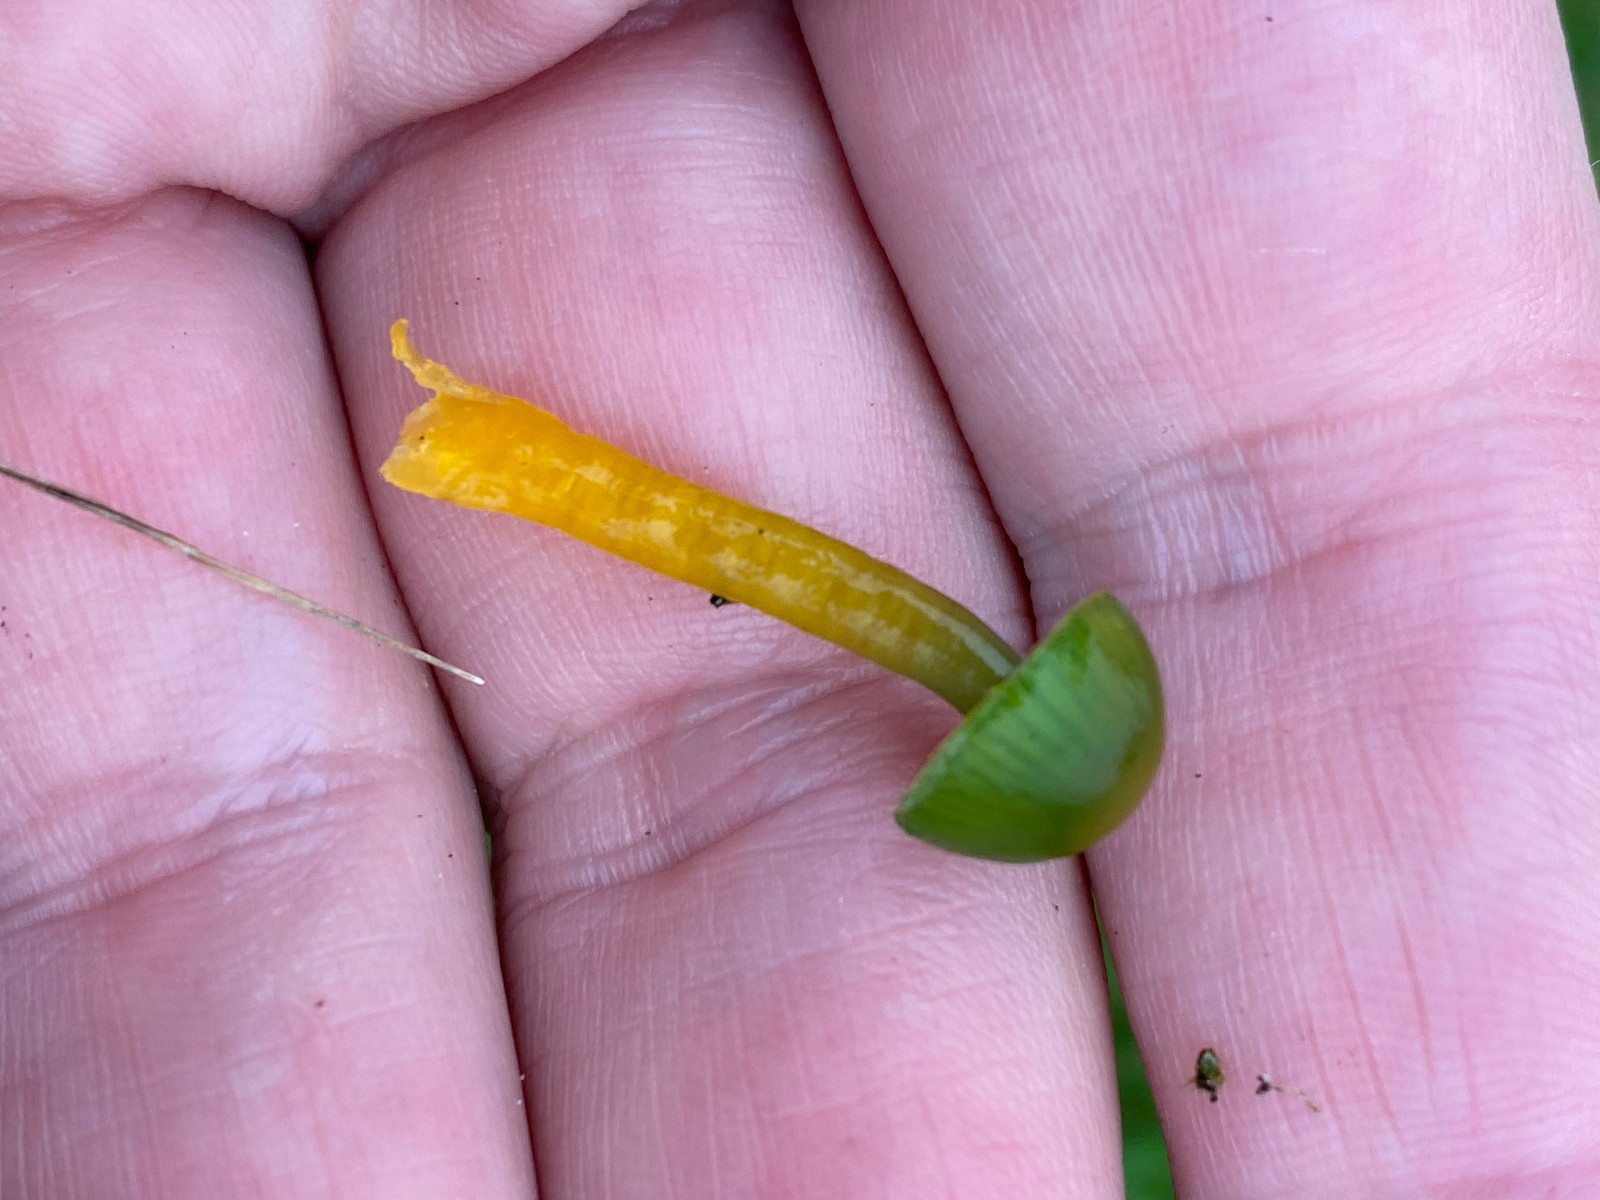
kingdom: Fungi
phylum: Basidiomycota
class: Agaricomycetes
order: Agaricales
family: Hygrophoraceae
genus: Gliophorus
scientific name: Gliophorus psittacinus
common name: papegøje-vokshat
